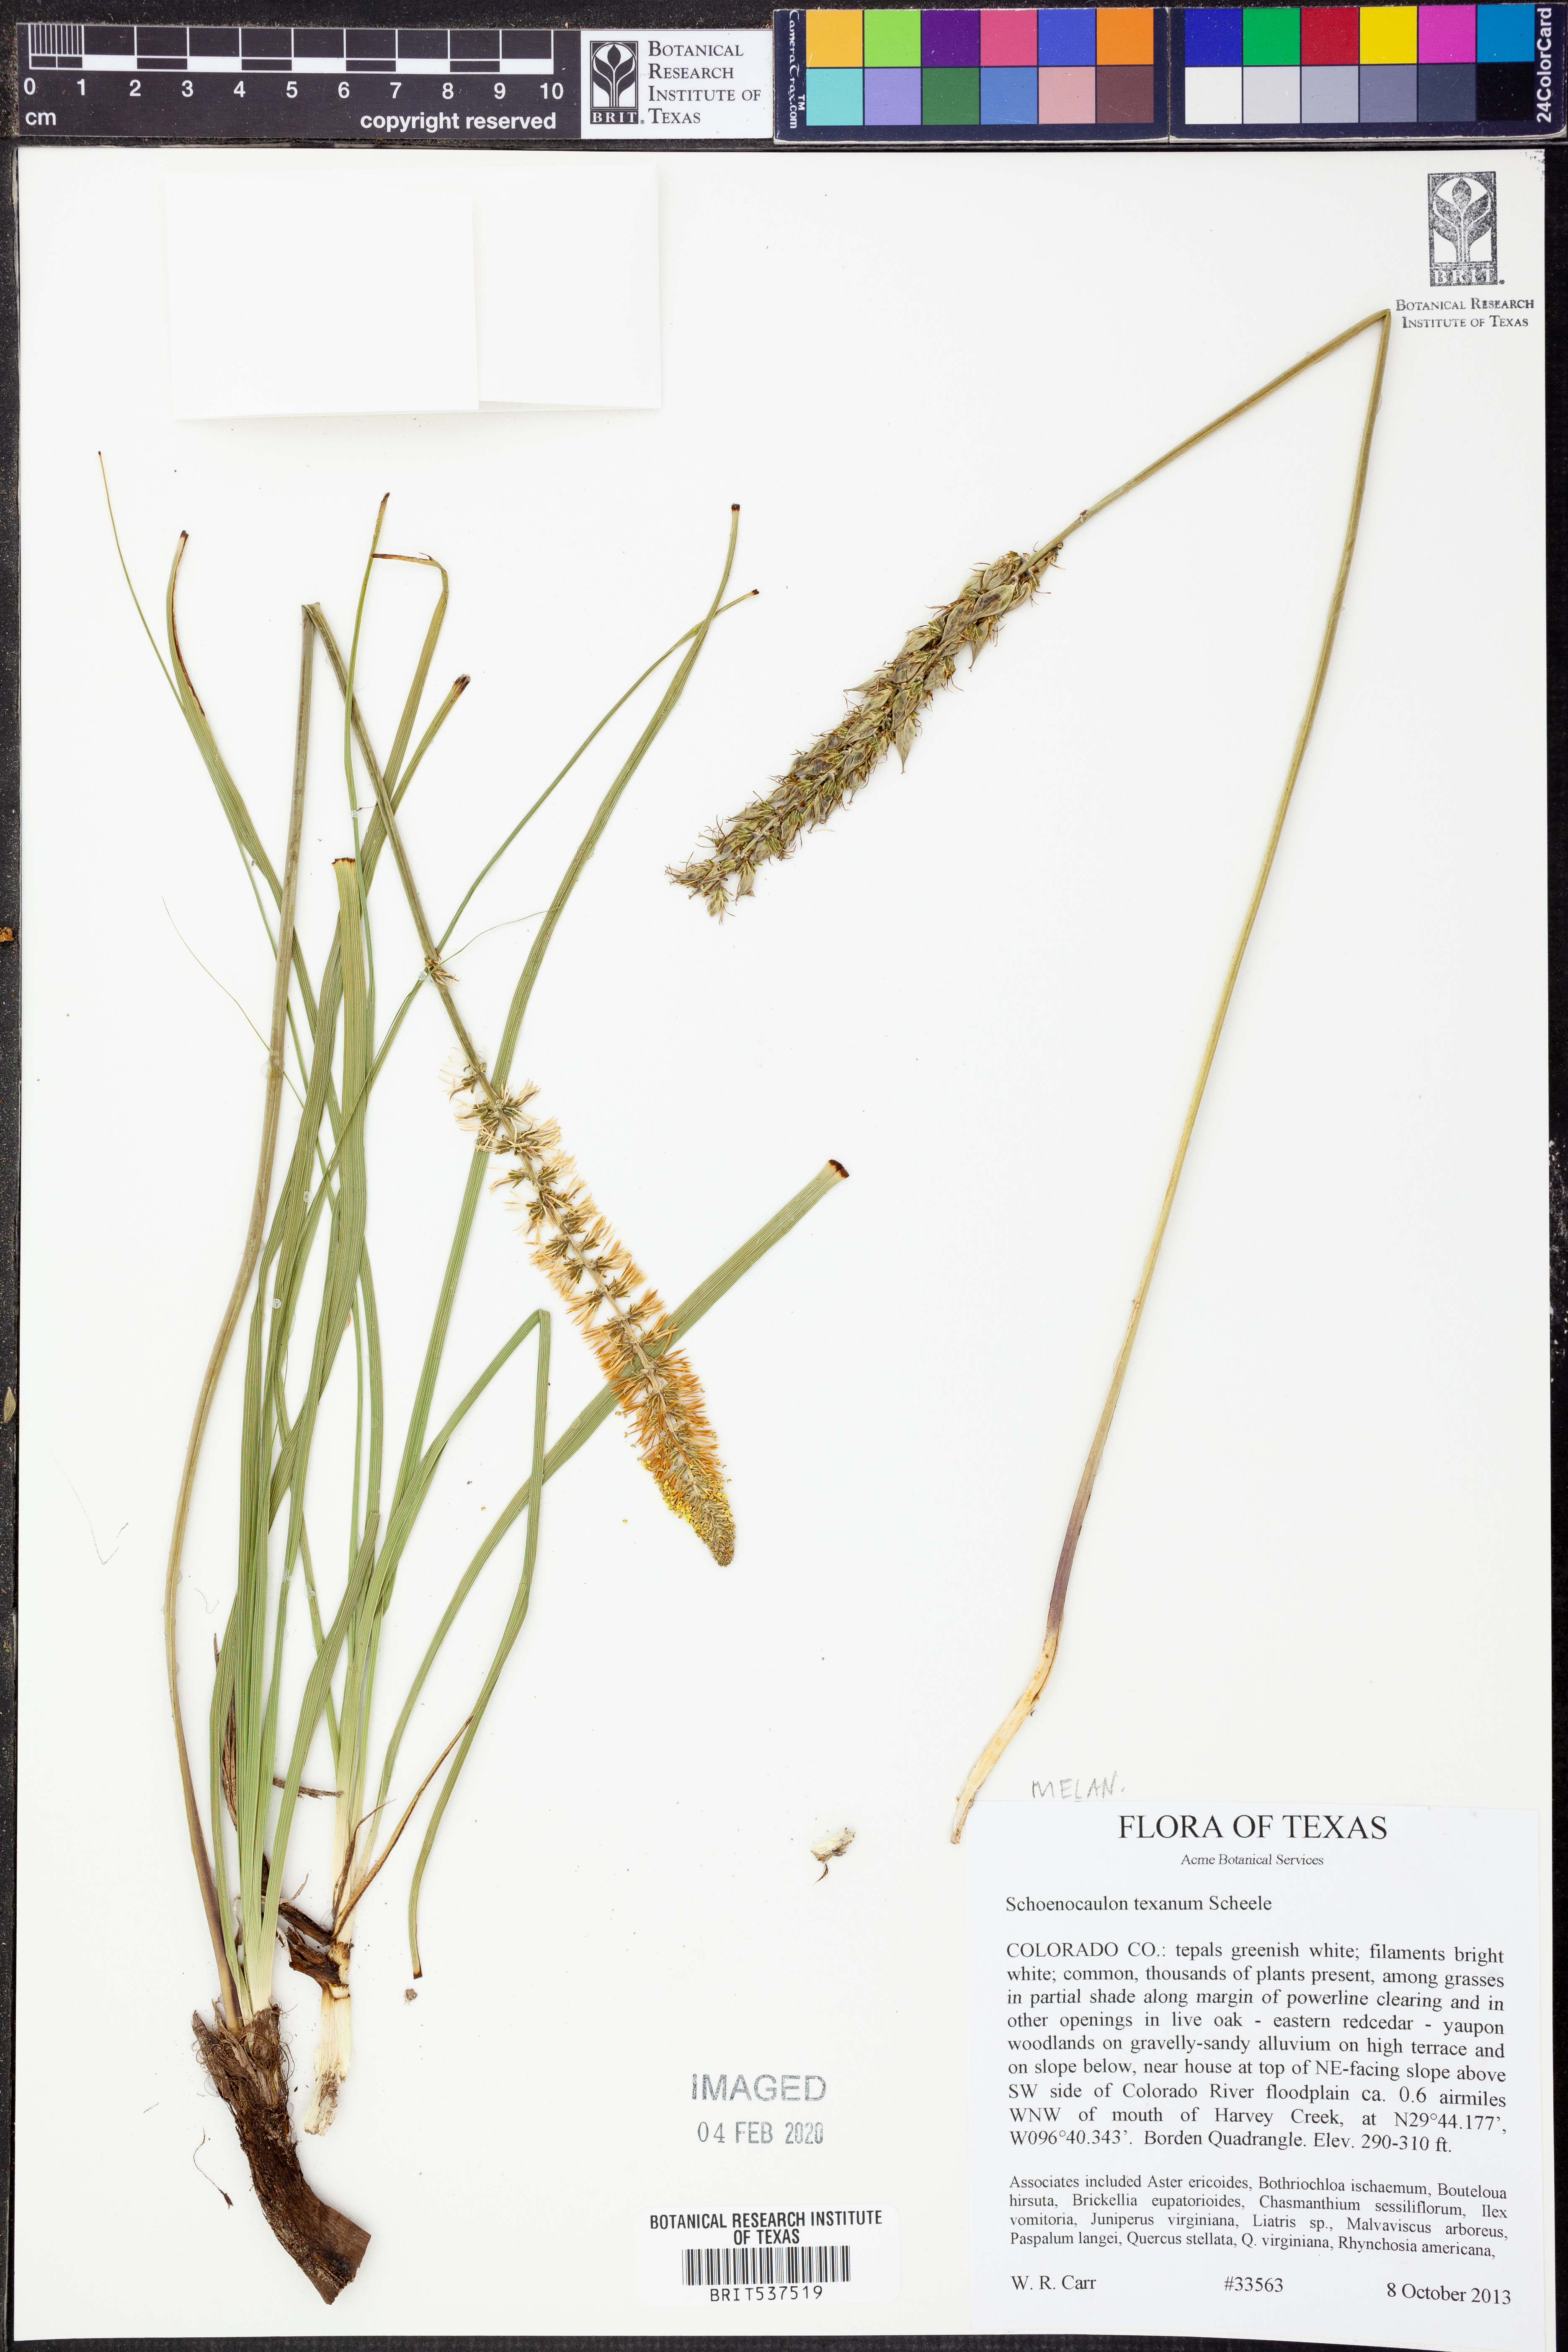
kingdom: Plantae
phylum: Tracheophyta
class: Liliopsida
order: Liliales
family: Melanthiaceae
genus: Schoenocaulon
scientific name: Schoenocaulon texanum
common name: Texas feather-shank
